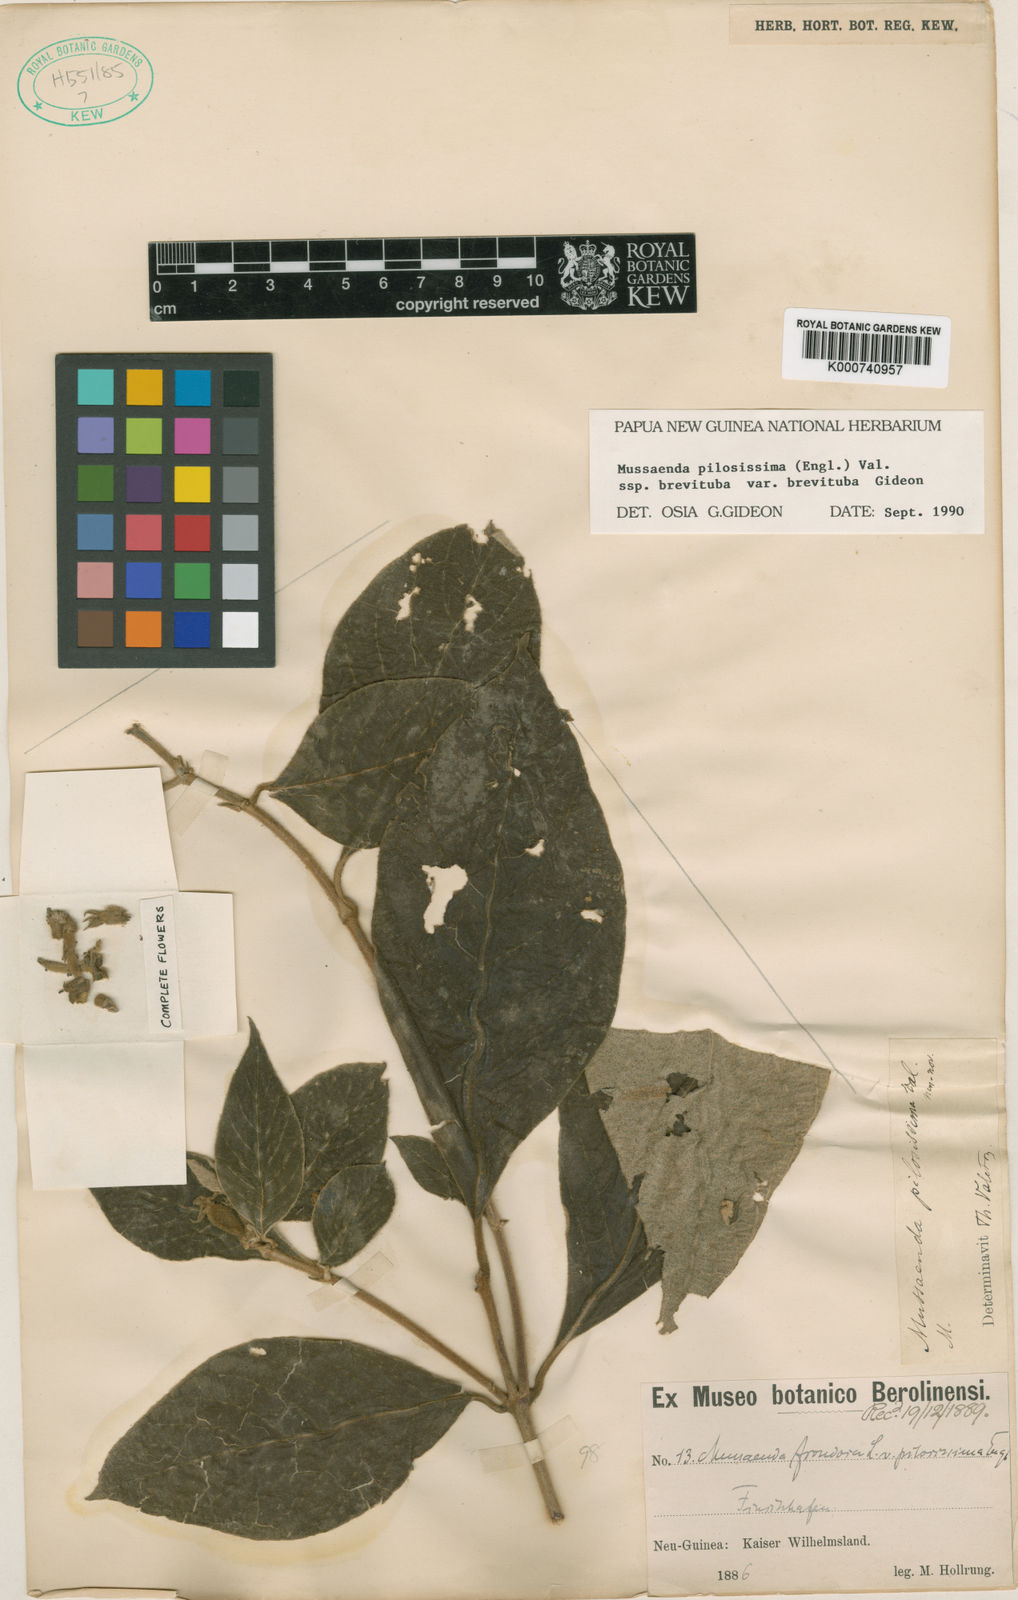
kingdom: Plantae
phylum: Tracheophyta
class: Magnoliopsida
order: Gentianales
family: Rubiaceae
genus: Mussaenda
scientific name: Mussaenda pilosissima
